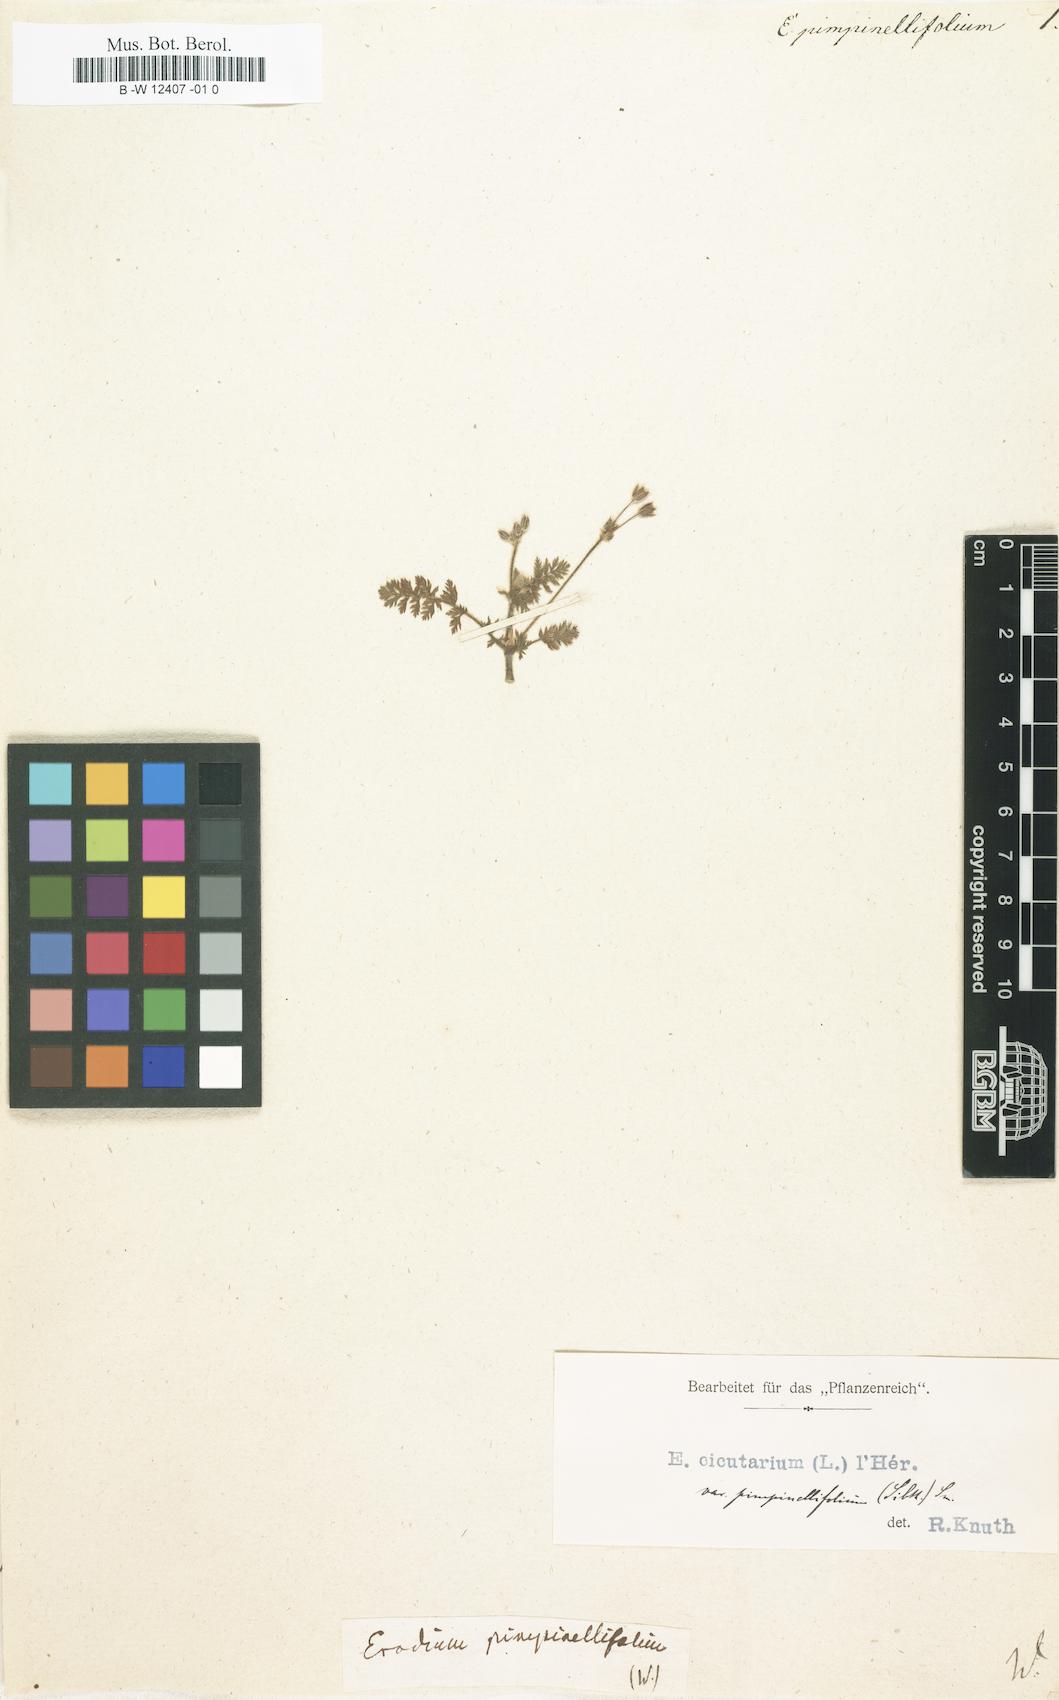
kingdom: Plantae
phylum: Tracheophyta
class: Magnoliopsida
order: Geraniales
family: Geraniaceae
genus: Erodium
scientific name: Erodium pimpinellifolium
